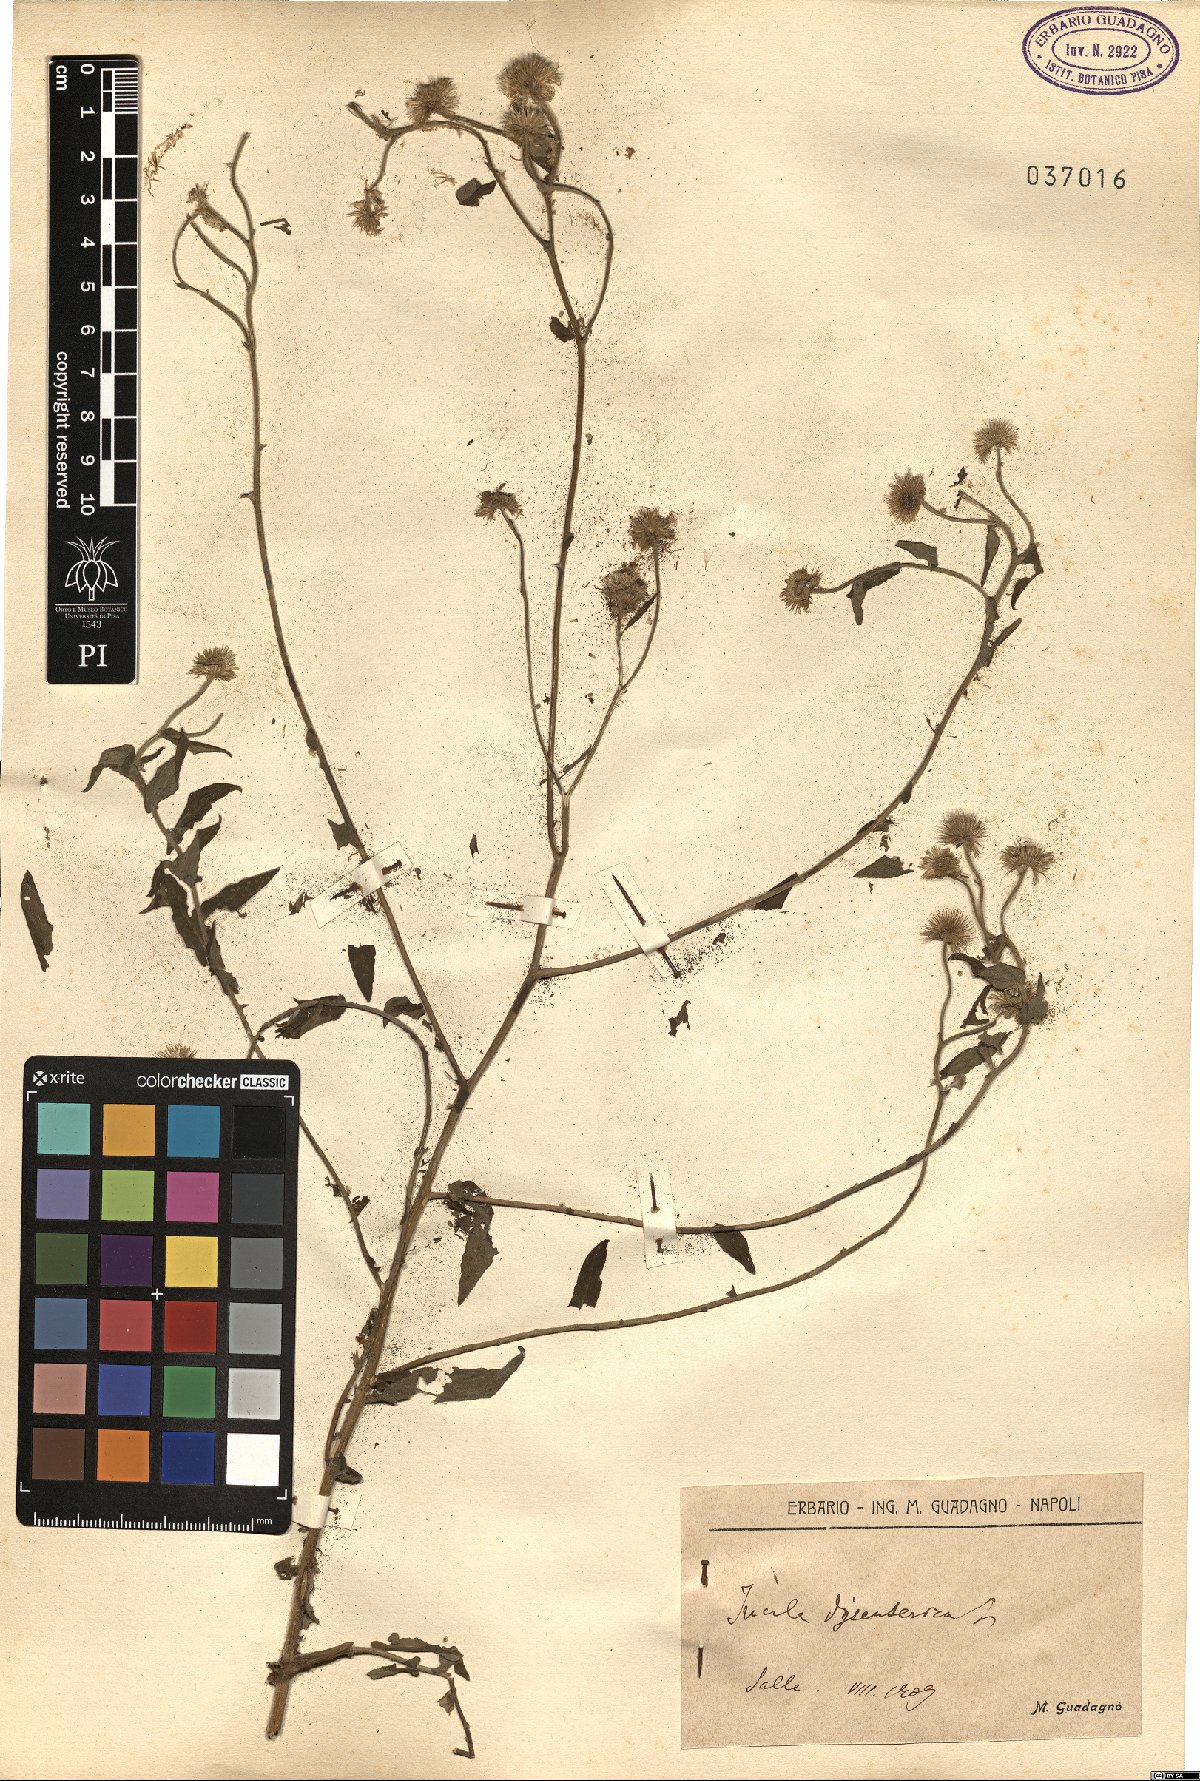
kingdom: Plantae
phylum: Tracheophyta
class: Magnoliopsida
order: Asterales
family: Asteraceae
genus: Pulicaria
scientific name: Pulicaria dysenterica
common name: Common fleabane
